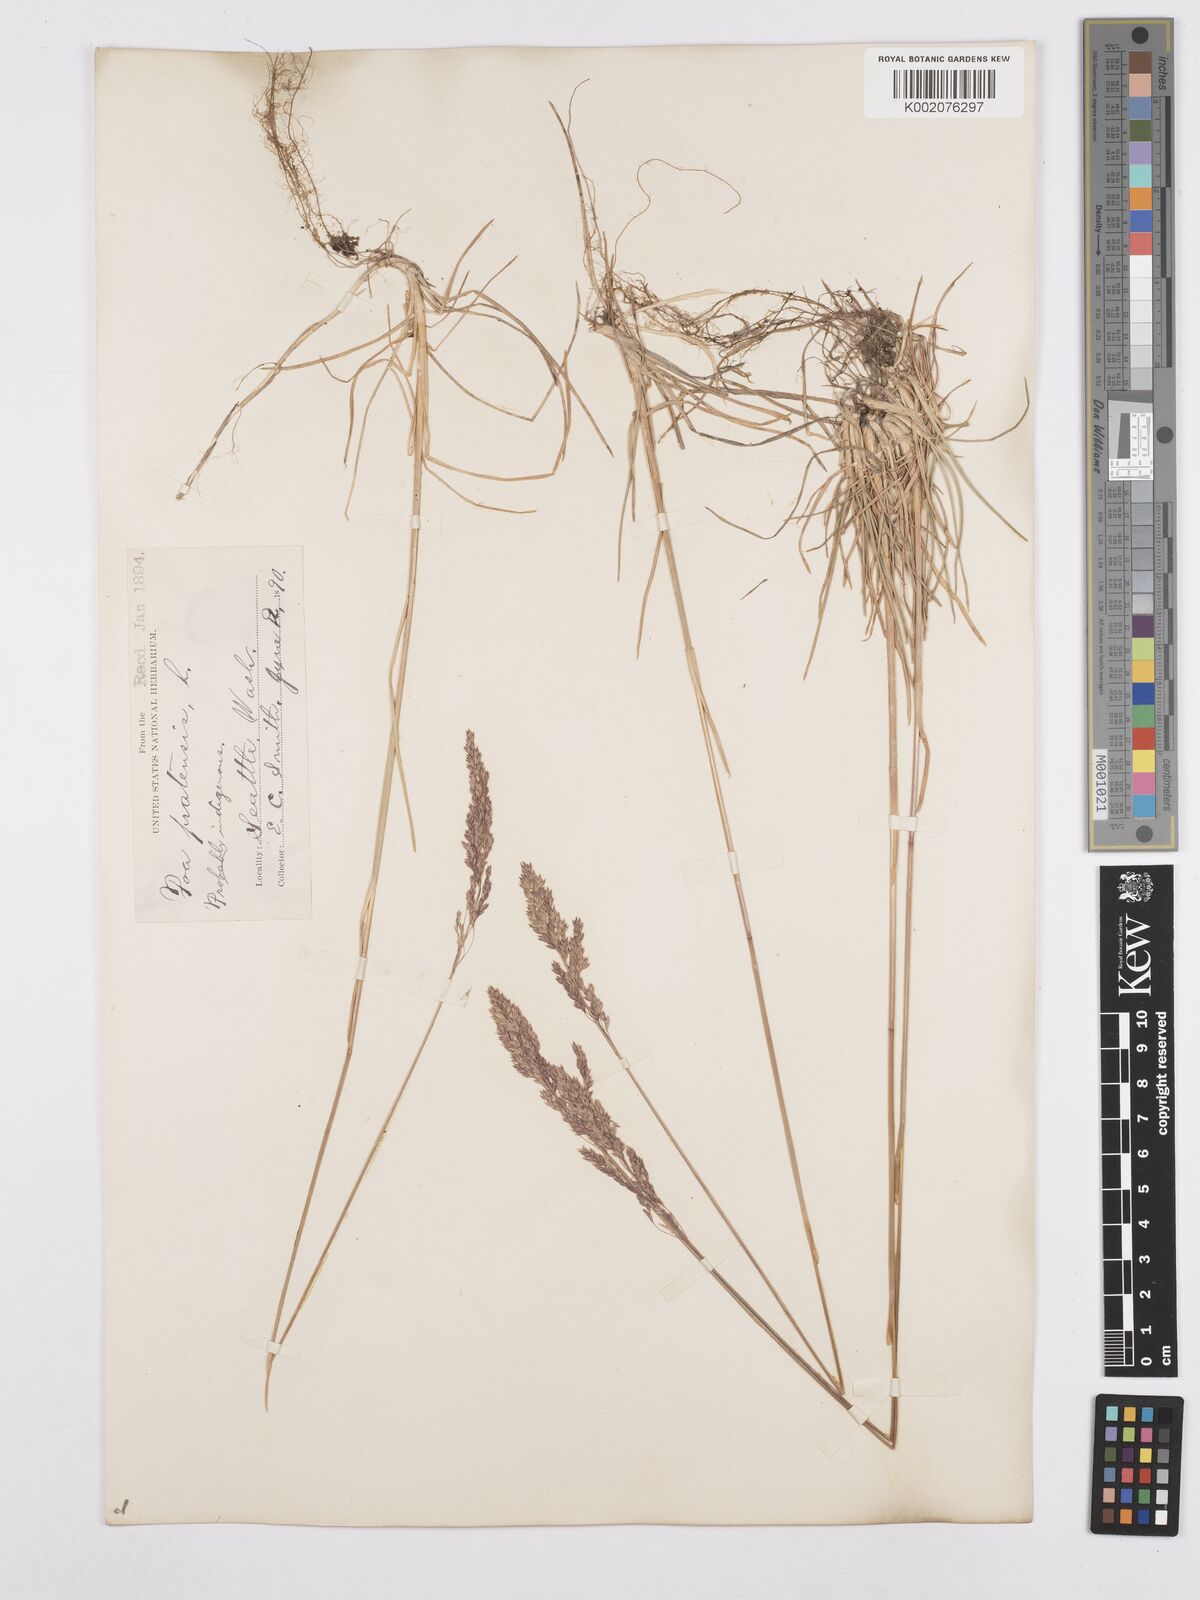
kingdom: Plantae
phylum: Tracheophyta
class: Liliopsida
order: Poales
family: Poaceae
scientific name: Poaceae
